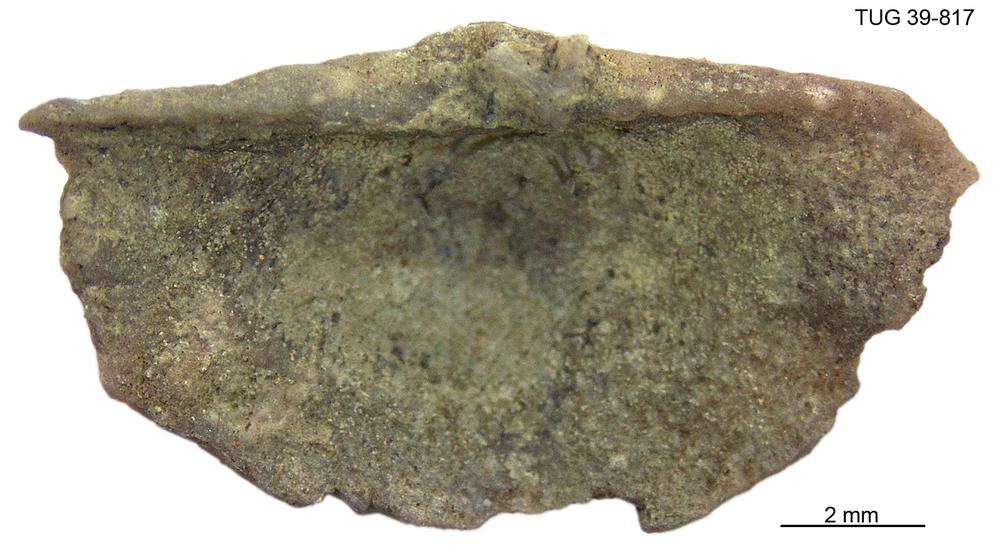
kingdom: Animalia
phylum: Brachiopoda
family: Sowerbyellidae
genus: Sowerbyella
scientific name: Sowerbyella
